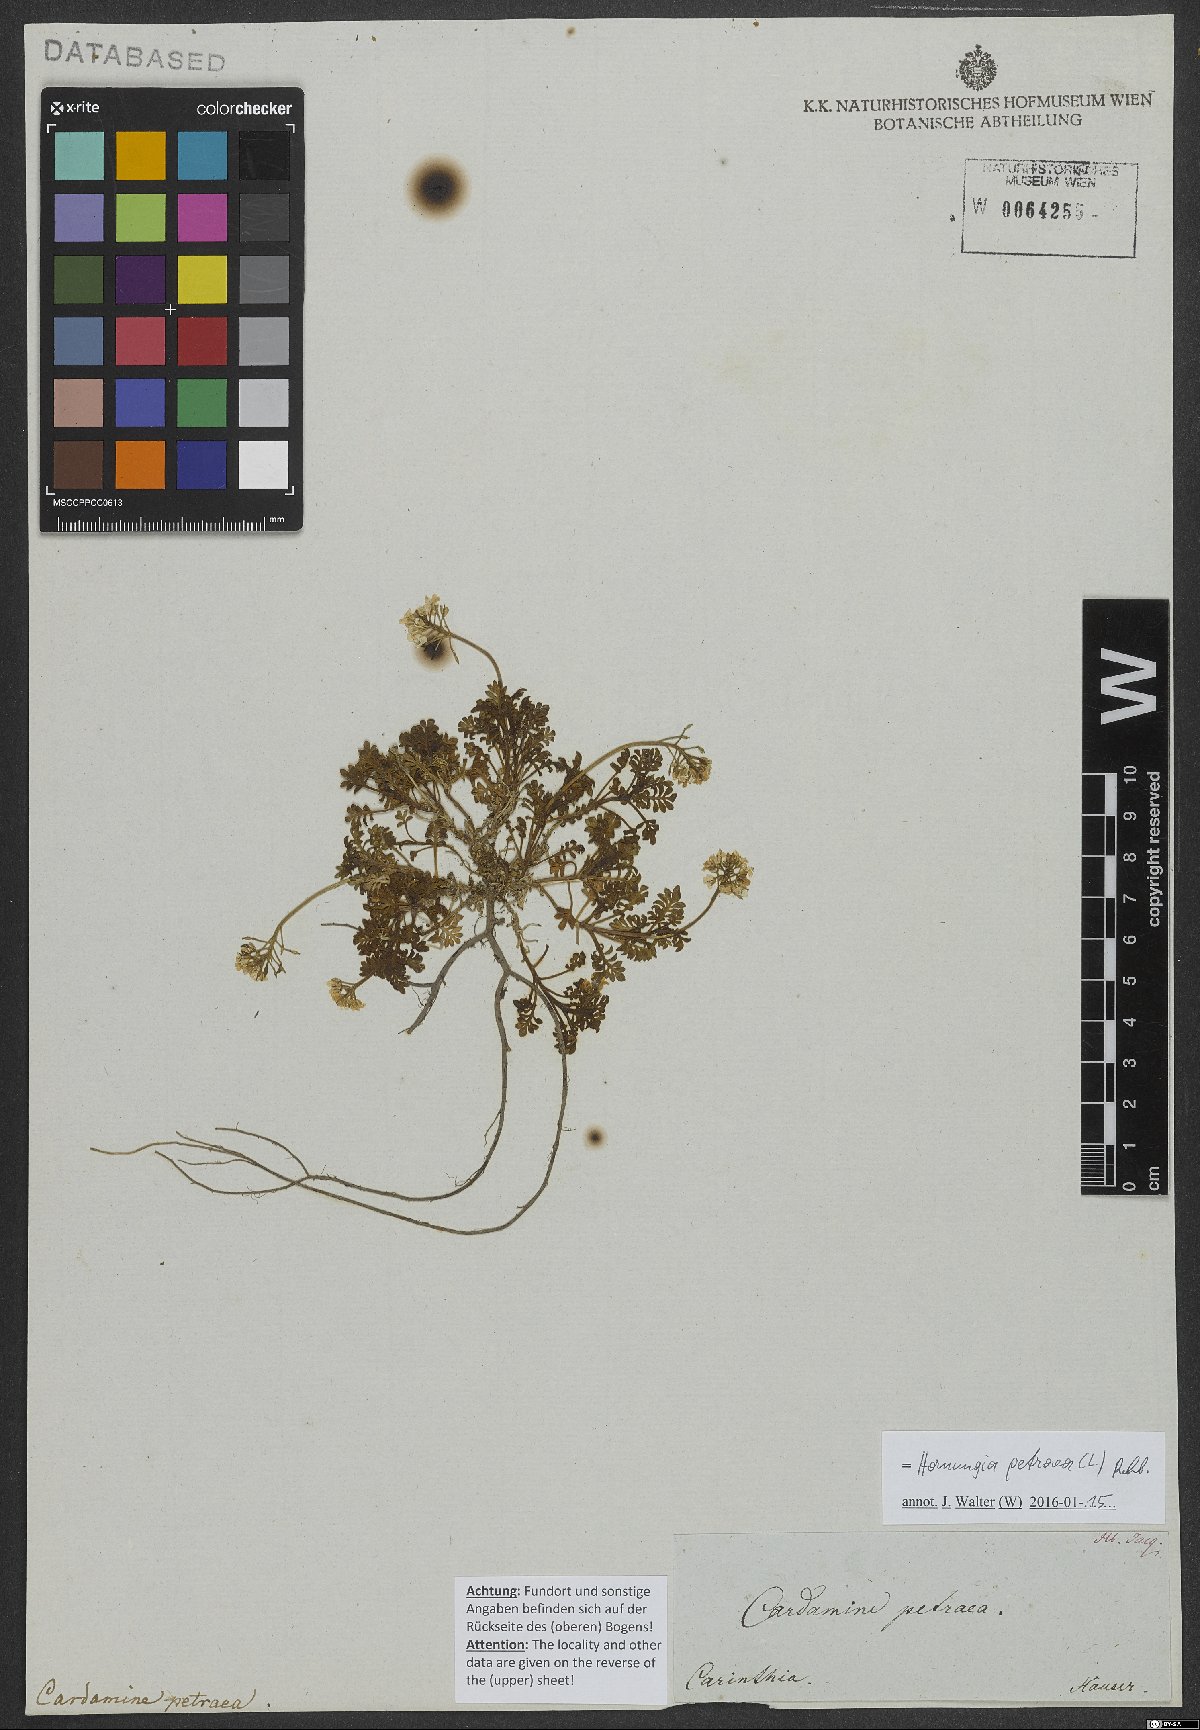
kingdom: Plantae
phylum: Tracheophyta
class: Magnoliopsida
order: Brassicales
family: Brassicaceae
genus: Hornungia
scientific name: Hornungia petraea
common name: Hutchinsia
